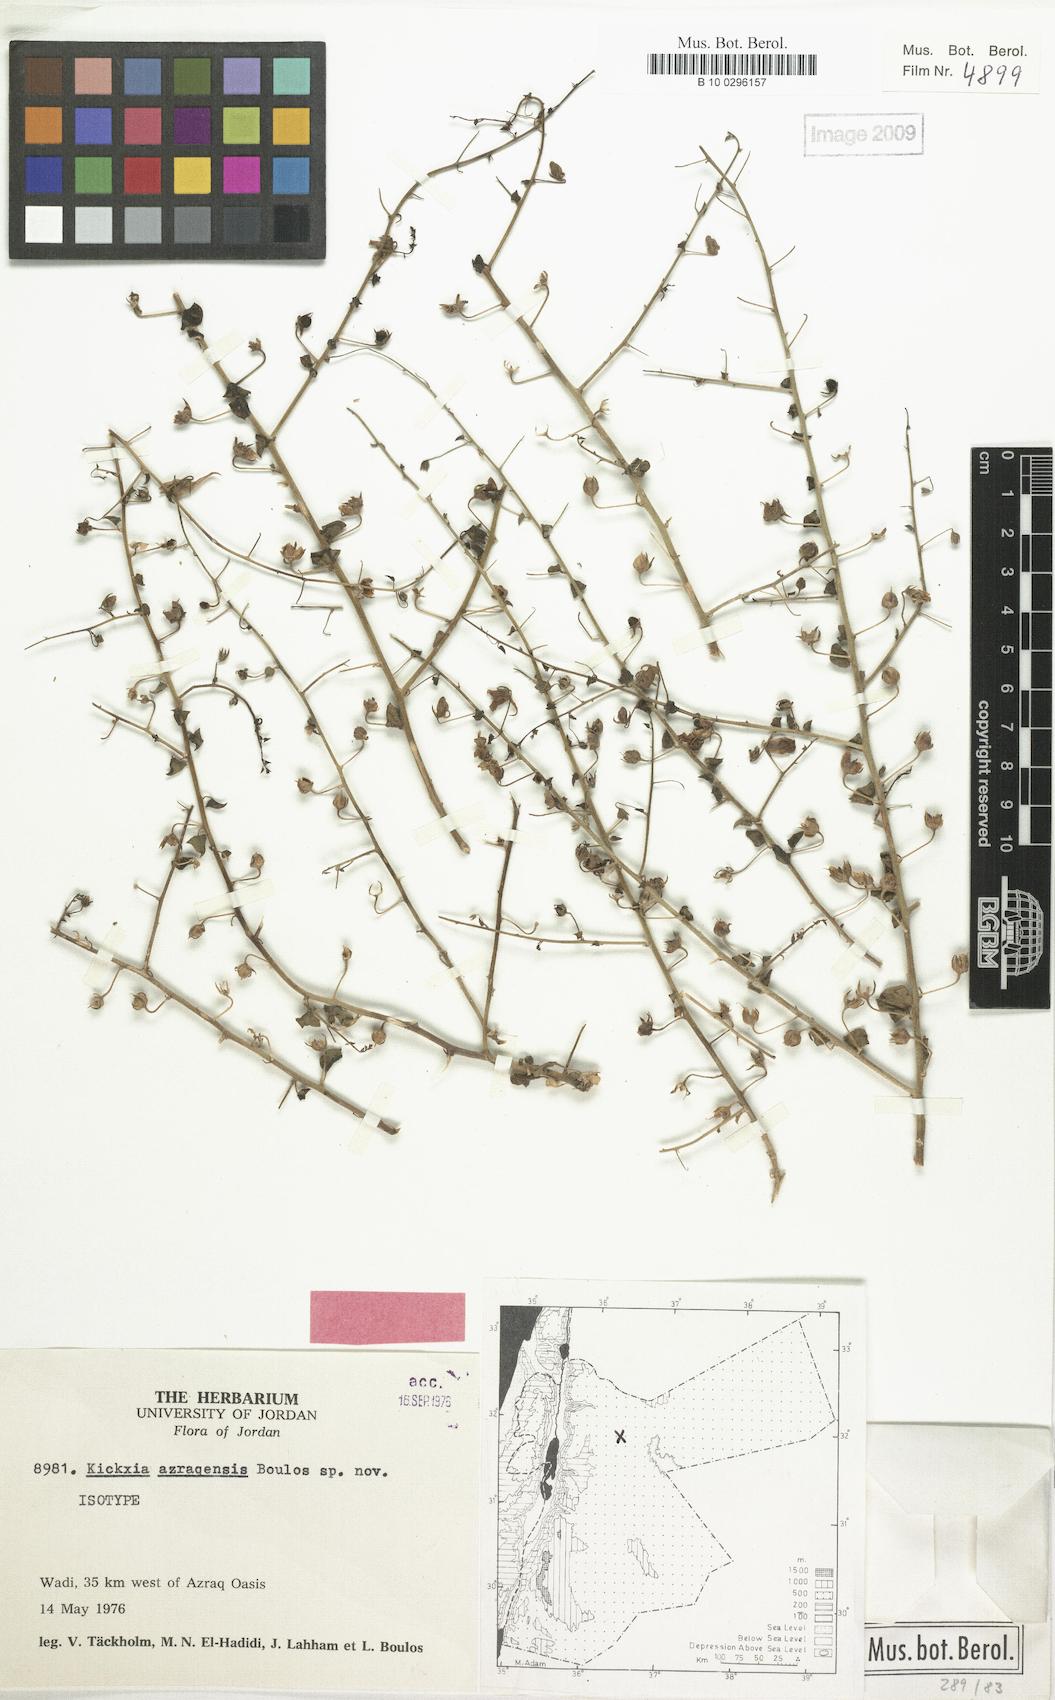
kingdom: Plantae
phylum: Tracheophyta
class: Magnoliopsida
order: Lamiales
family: Plantaginaceae
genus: Nanorrhinum
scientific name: Nanorrhinum azraqense
